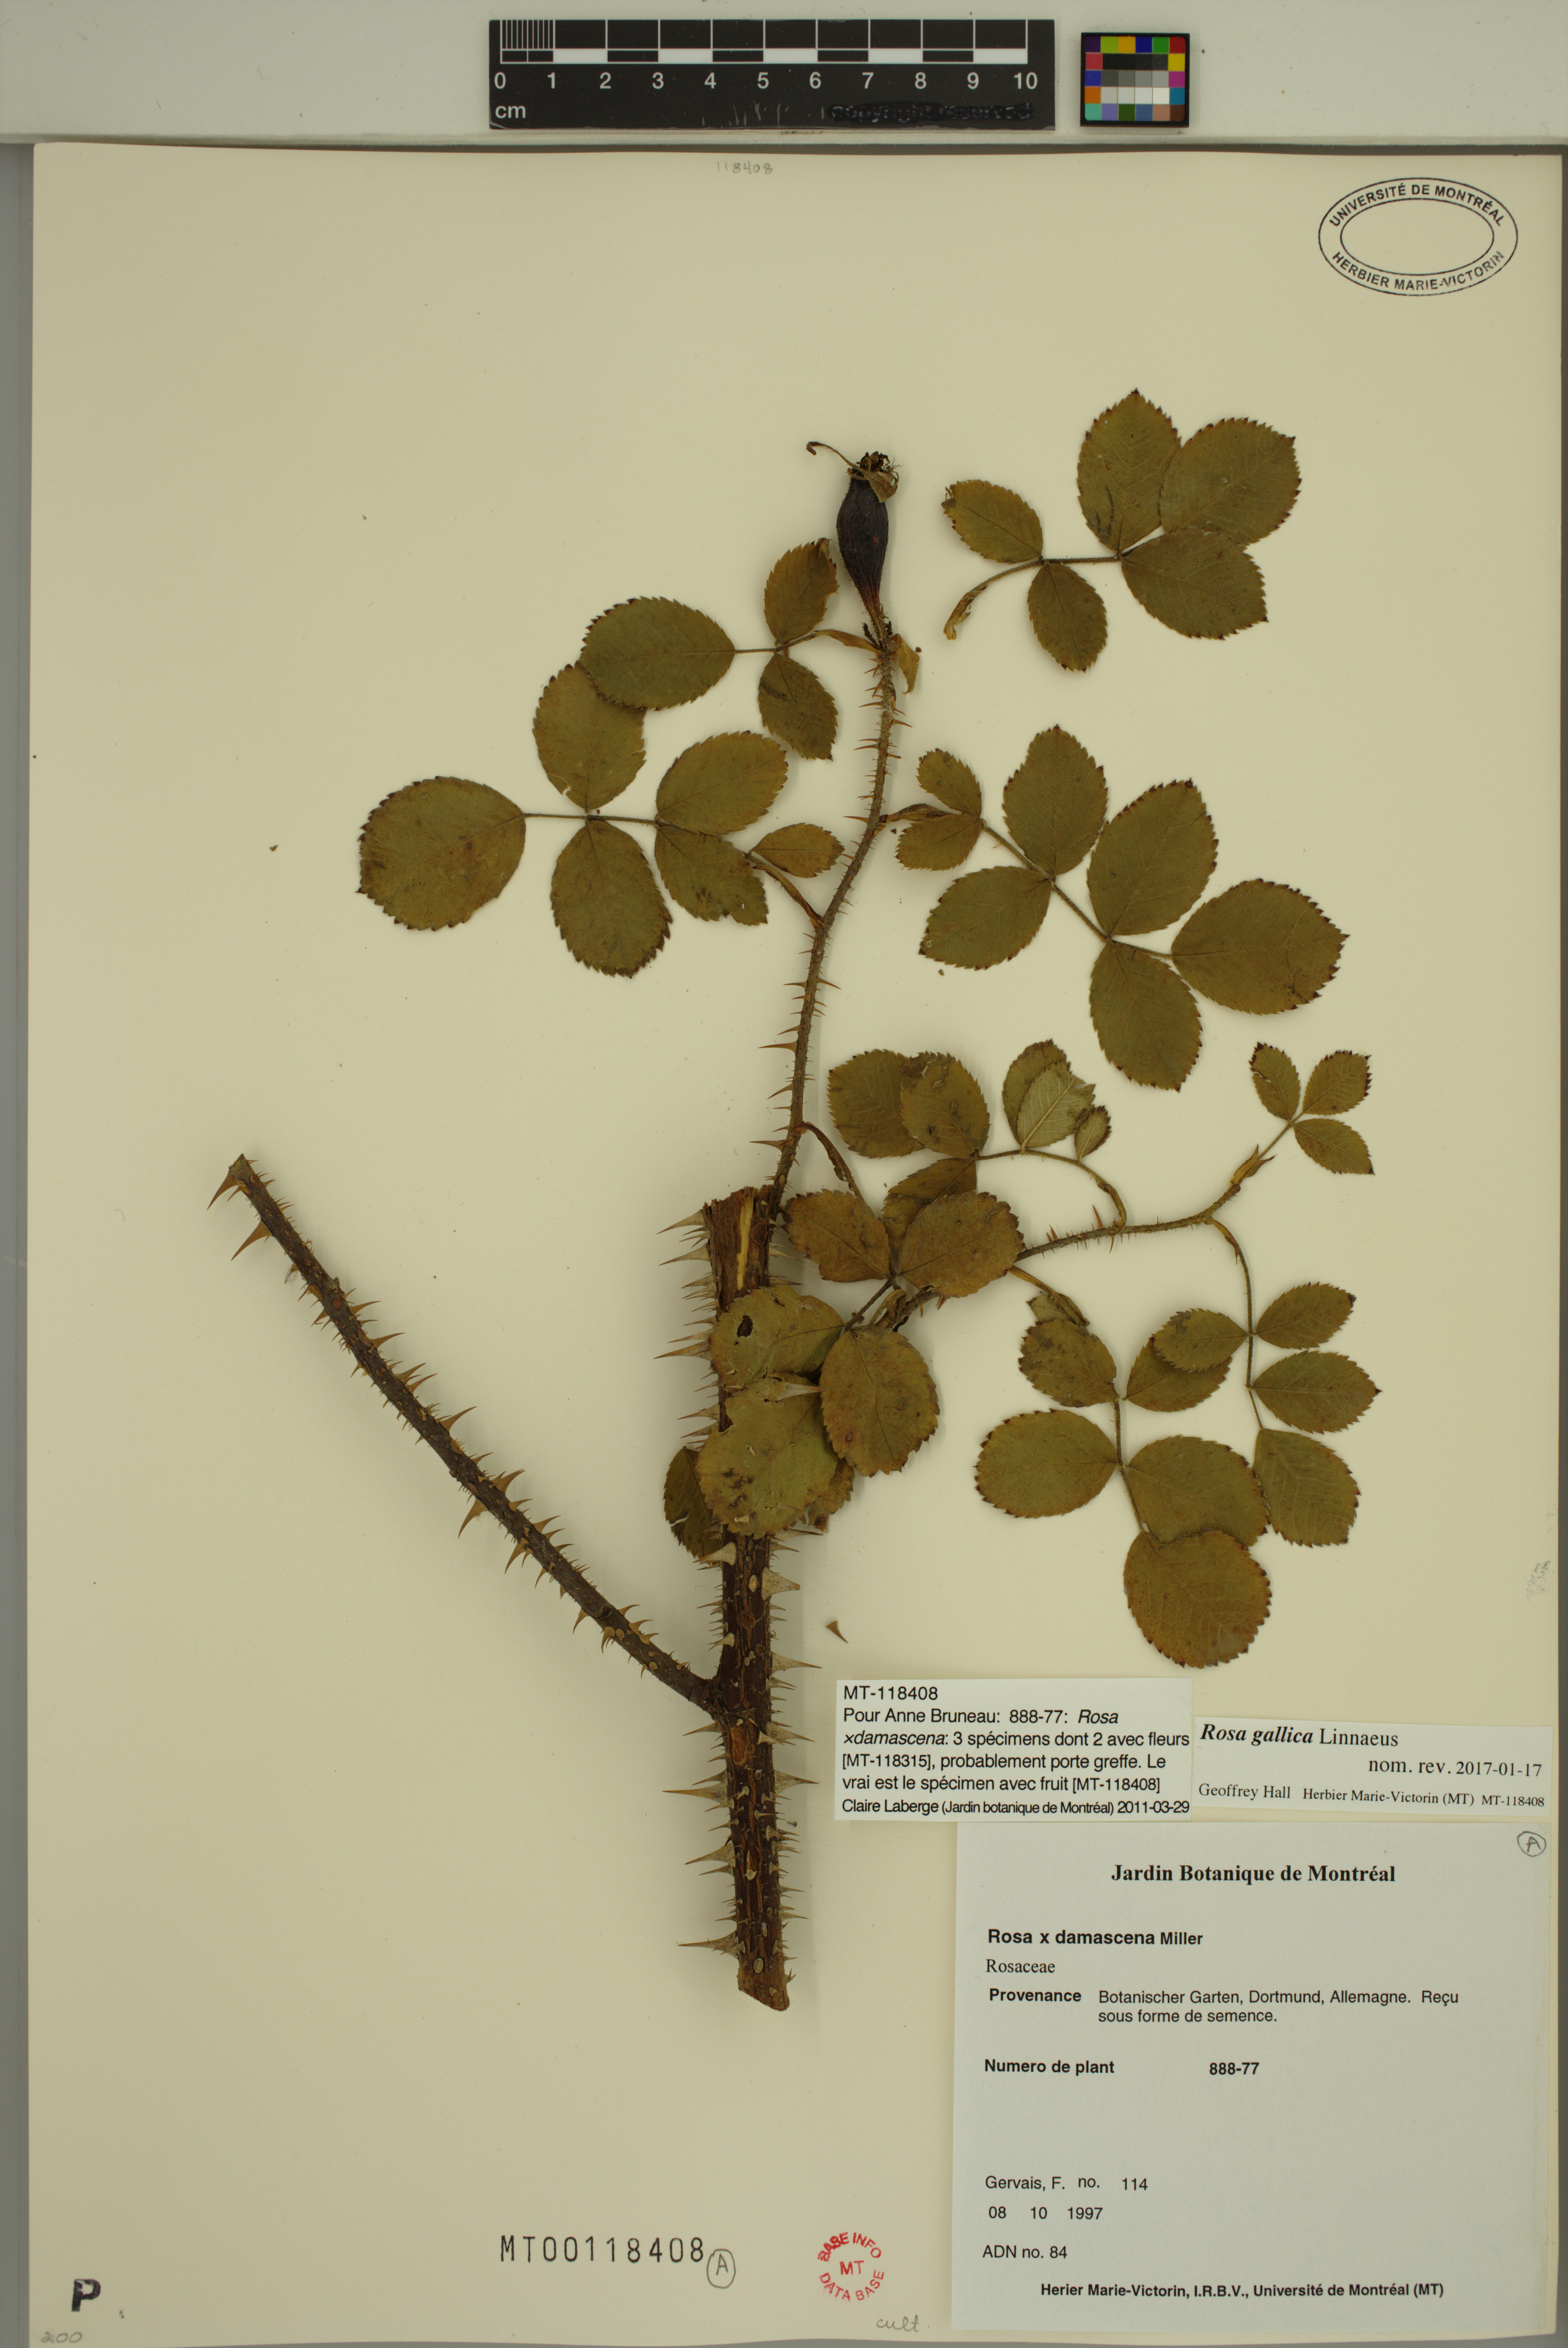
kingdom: Plantae
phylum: Tracheophyta
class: Magnoliopsida
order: Rosales
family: Rosaceae
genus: Rosa
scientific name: Rosa gallica
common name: French rose
